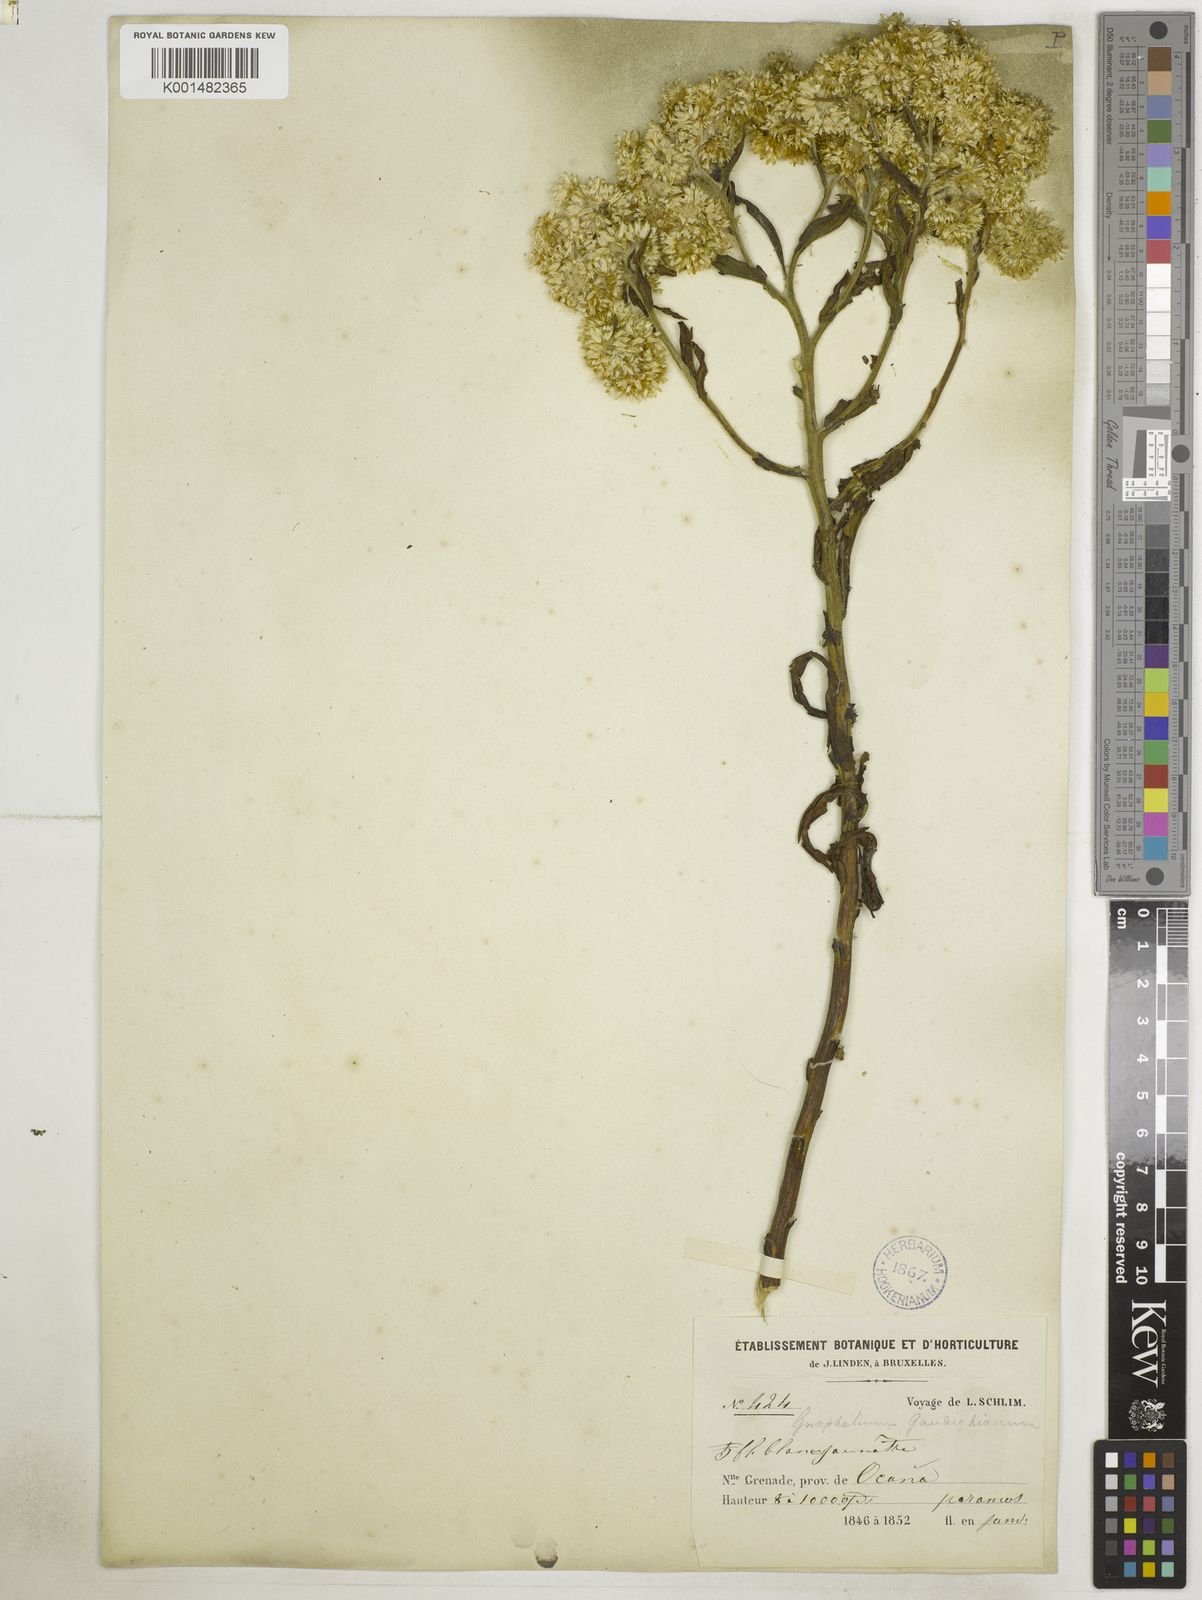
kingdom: Plantae
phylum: Tracheophyta
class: Magnoliopsida
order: Asterales
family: Asteraceae
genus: Pseudognaphalium
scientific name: Pseudognaphalium gaudichaudianum
